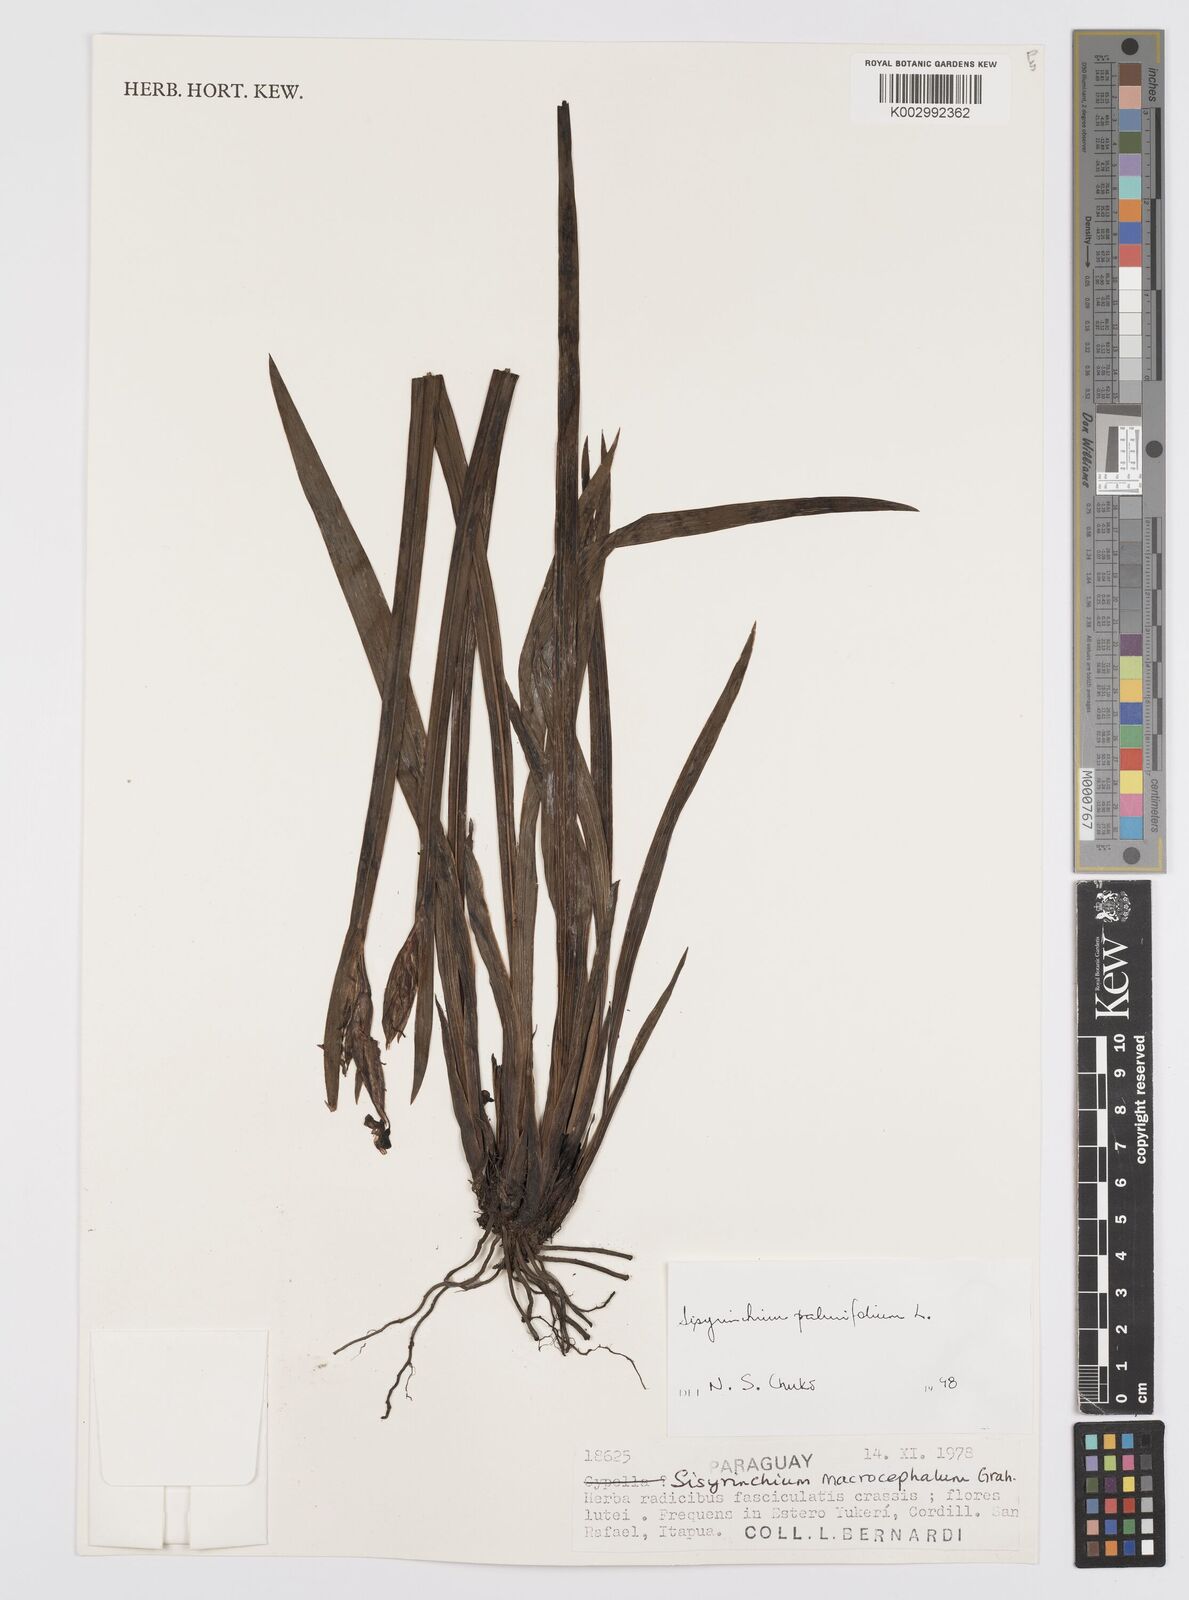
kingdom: Plantae
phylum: Tracheophyta
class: Liliopsida
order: Asparagales
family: Iridaceae
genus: Sisyrinchium
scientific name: Sisyrinchium palmifolium
